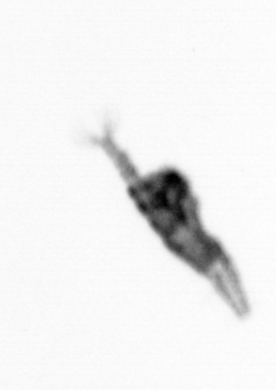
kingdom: Animalia
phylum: Arthropoda
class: Copepoda
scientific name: Copepoda
